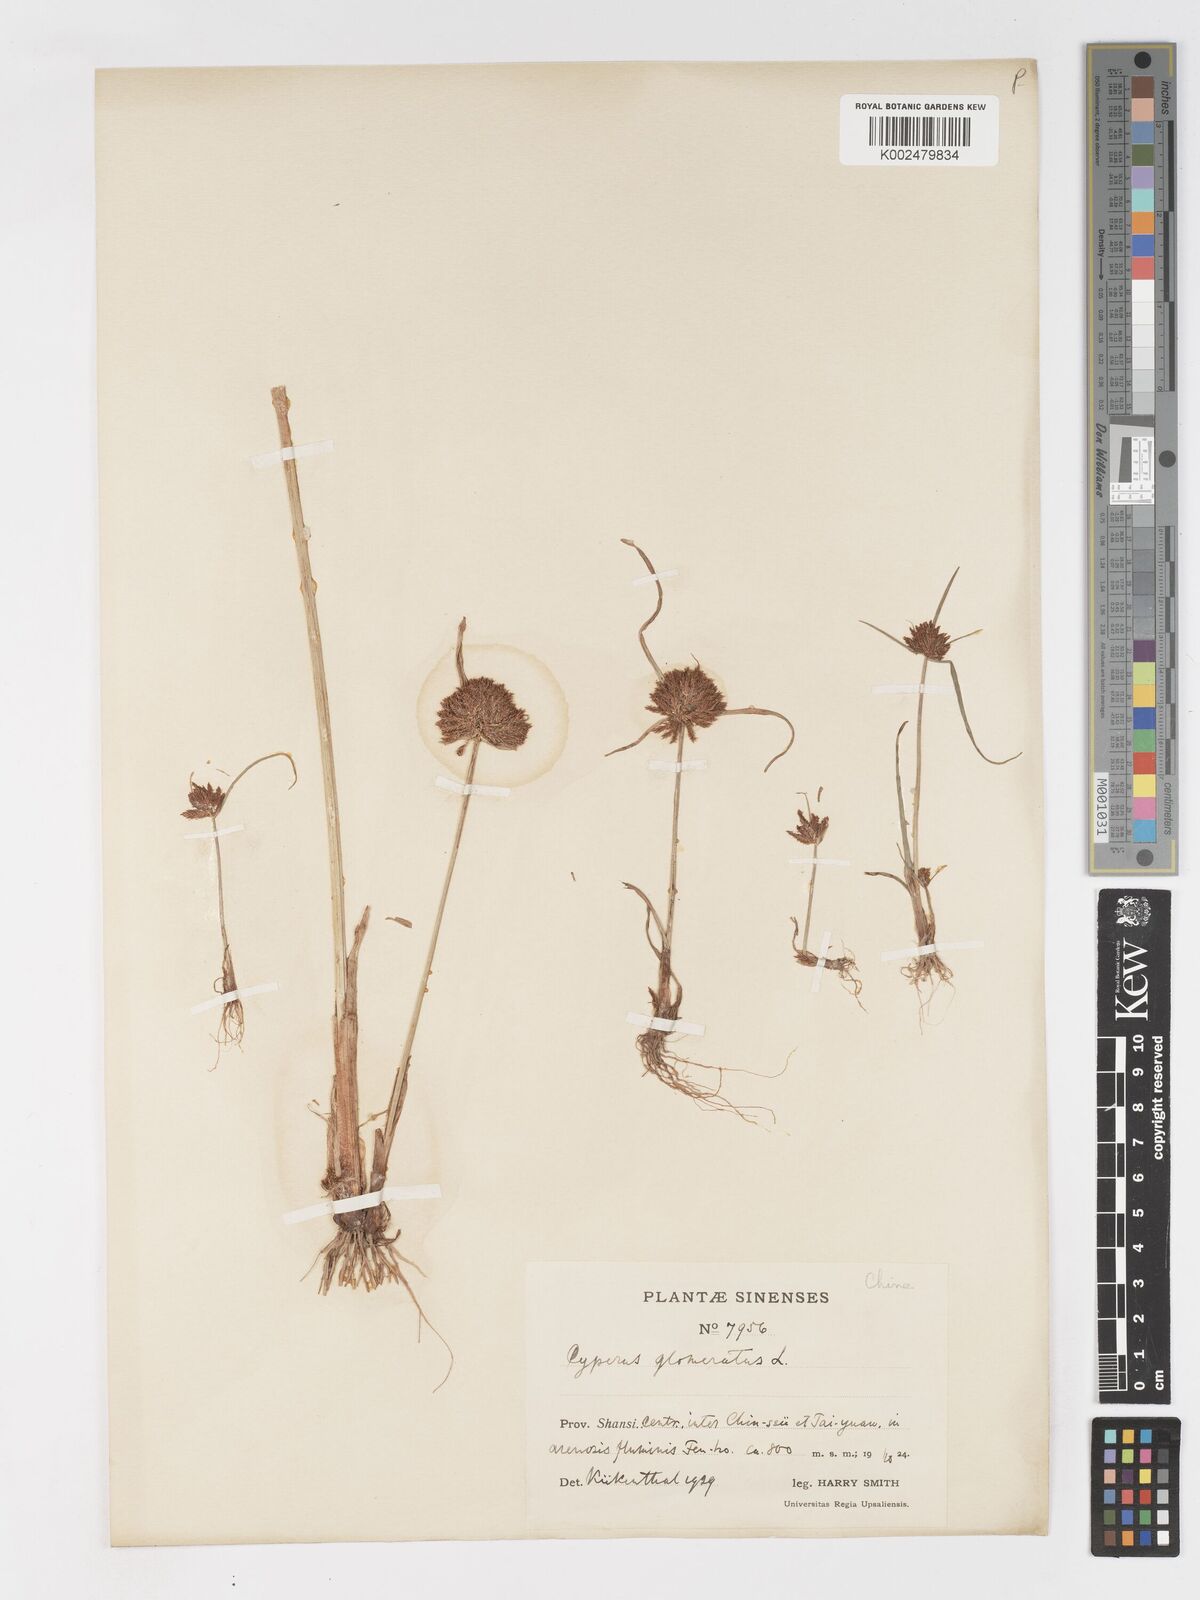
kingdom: Plantae
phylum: Tracheophyta
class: Liliopsida
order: Poales
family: Cyperaceae
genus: Cyperus
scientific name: Cyperus glomeratus
